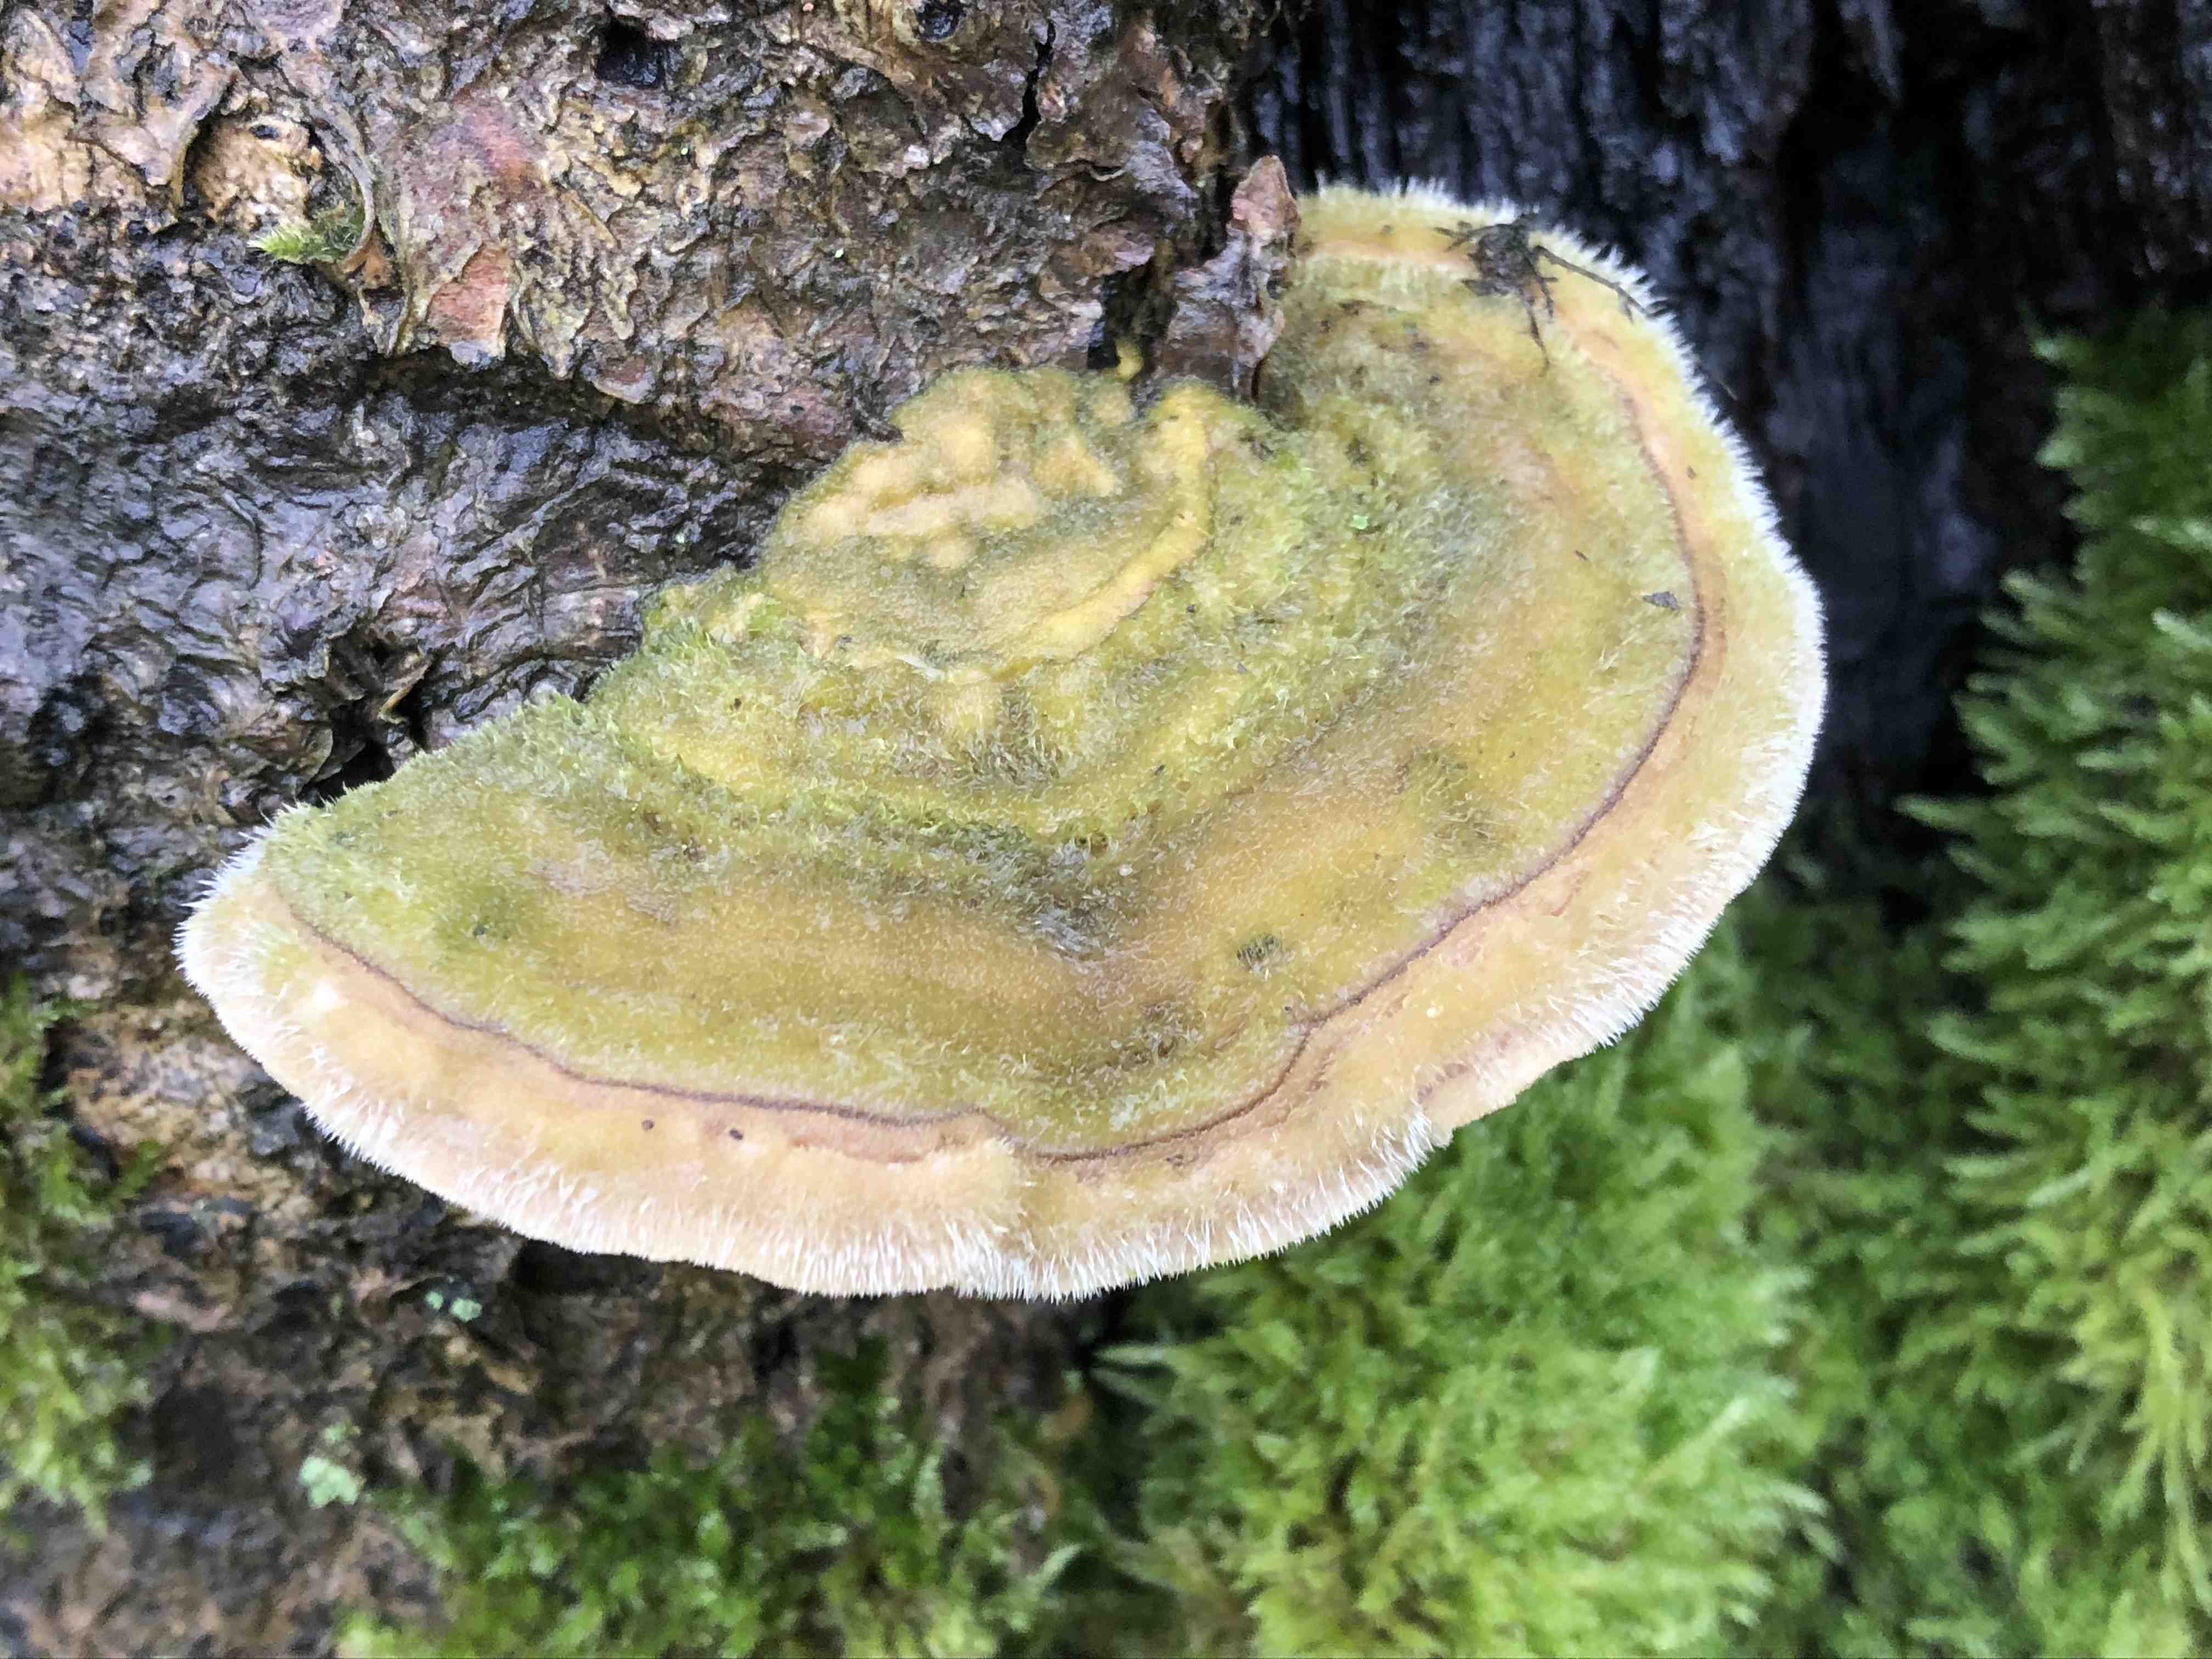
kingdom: Fungi
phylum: Basidiomycota
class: Agaricomycetes
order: Polyporales
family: Polyporaceae
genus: Trametes
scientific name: Trametes hirsuta
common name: håret læderporesvamp
